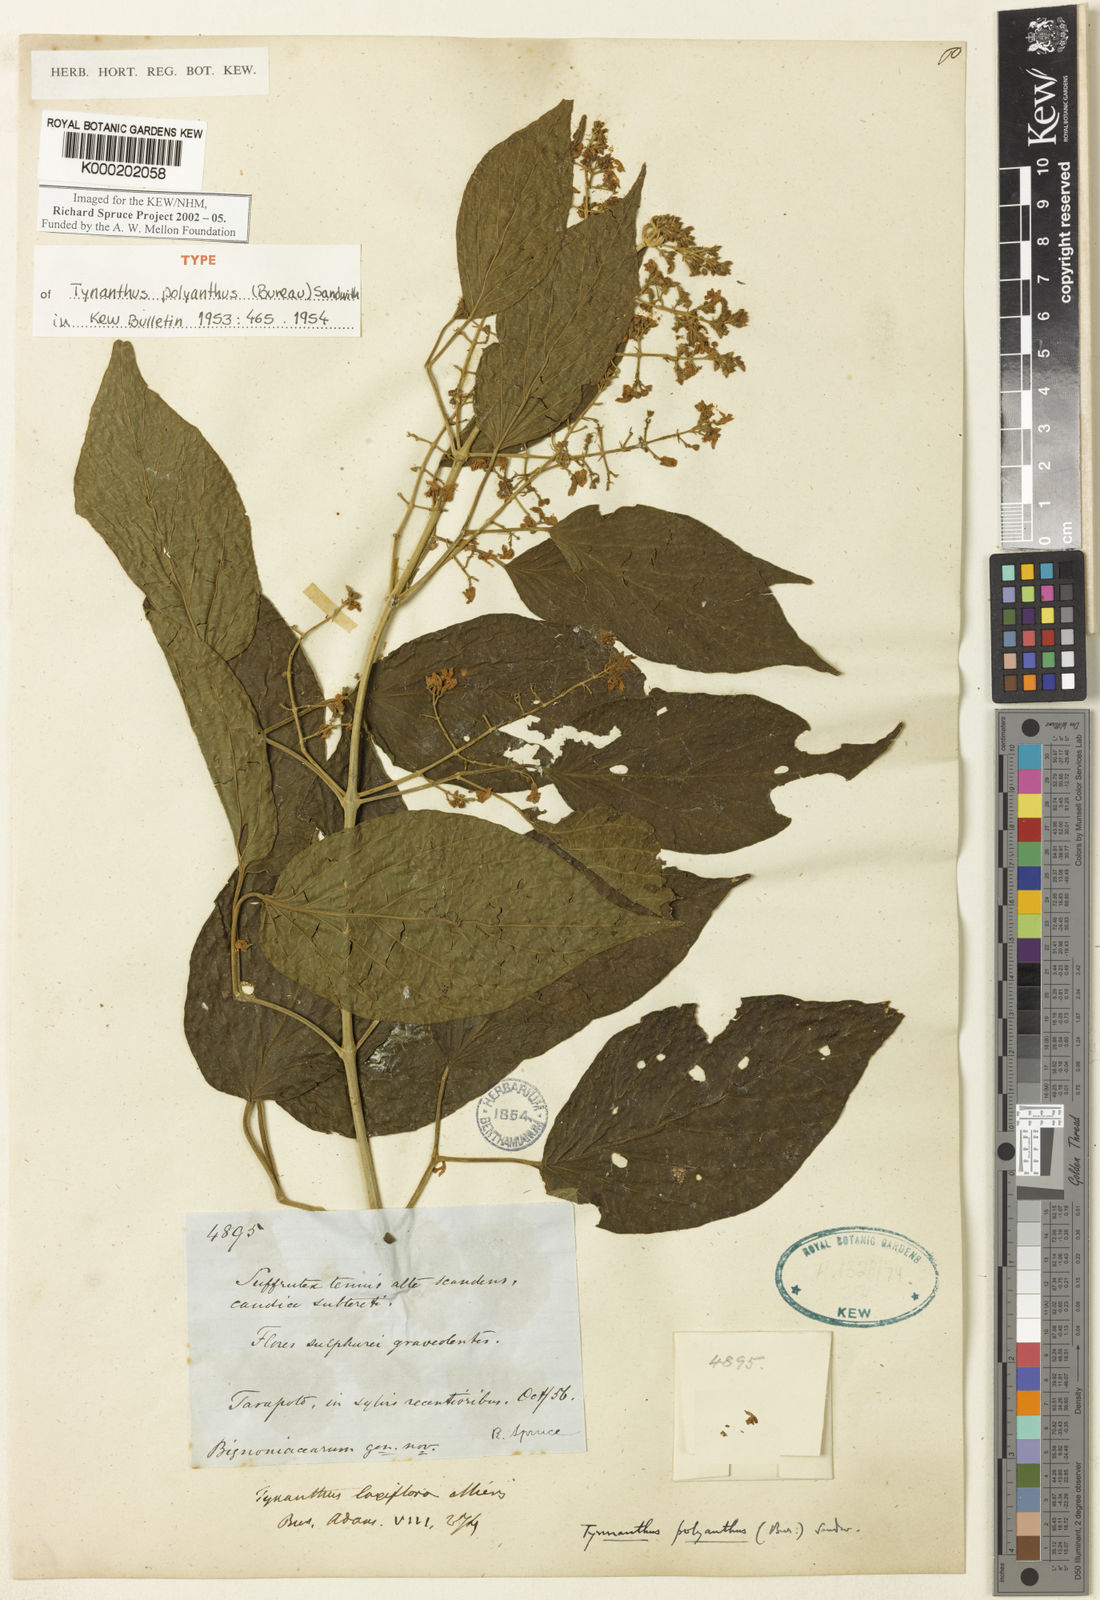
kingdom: Plantae
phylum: Tracheophyta
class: Magnoliopsida
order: Lamiales
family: Bignoniaceae
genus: Tynanthus
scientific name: Tynanthus polyanthus
